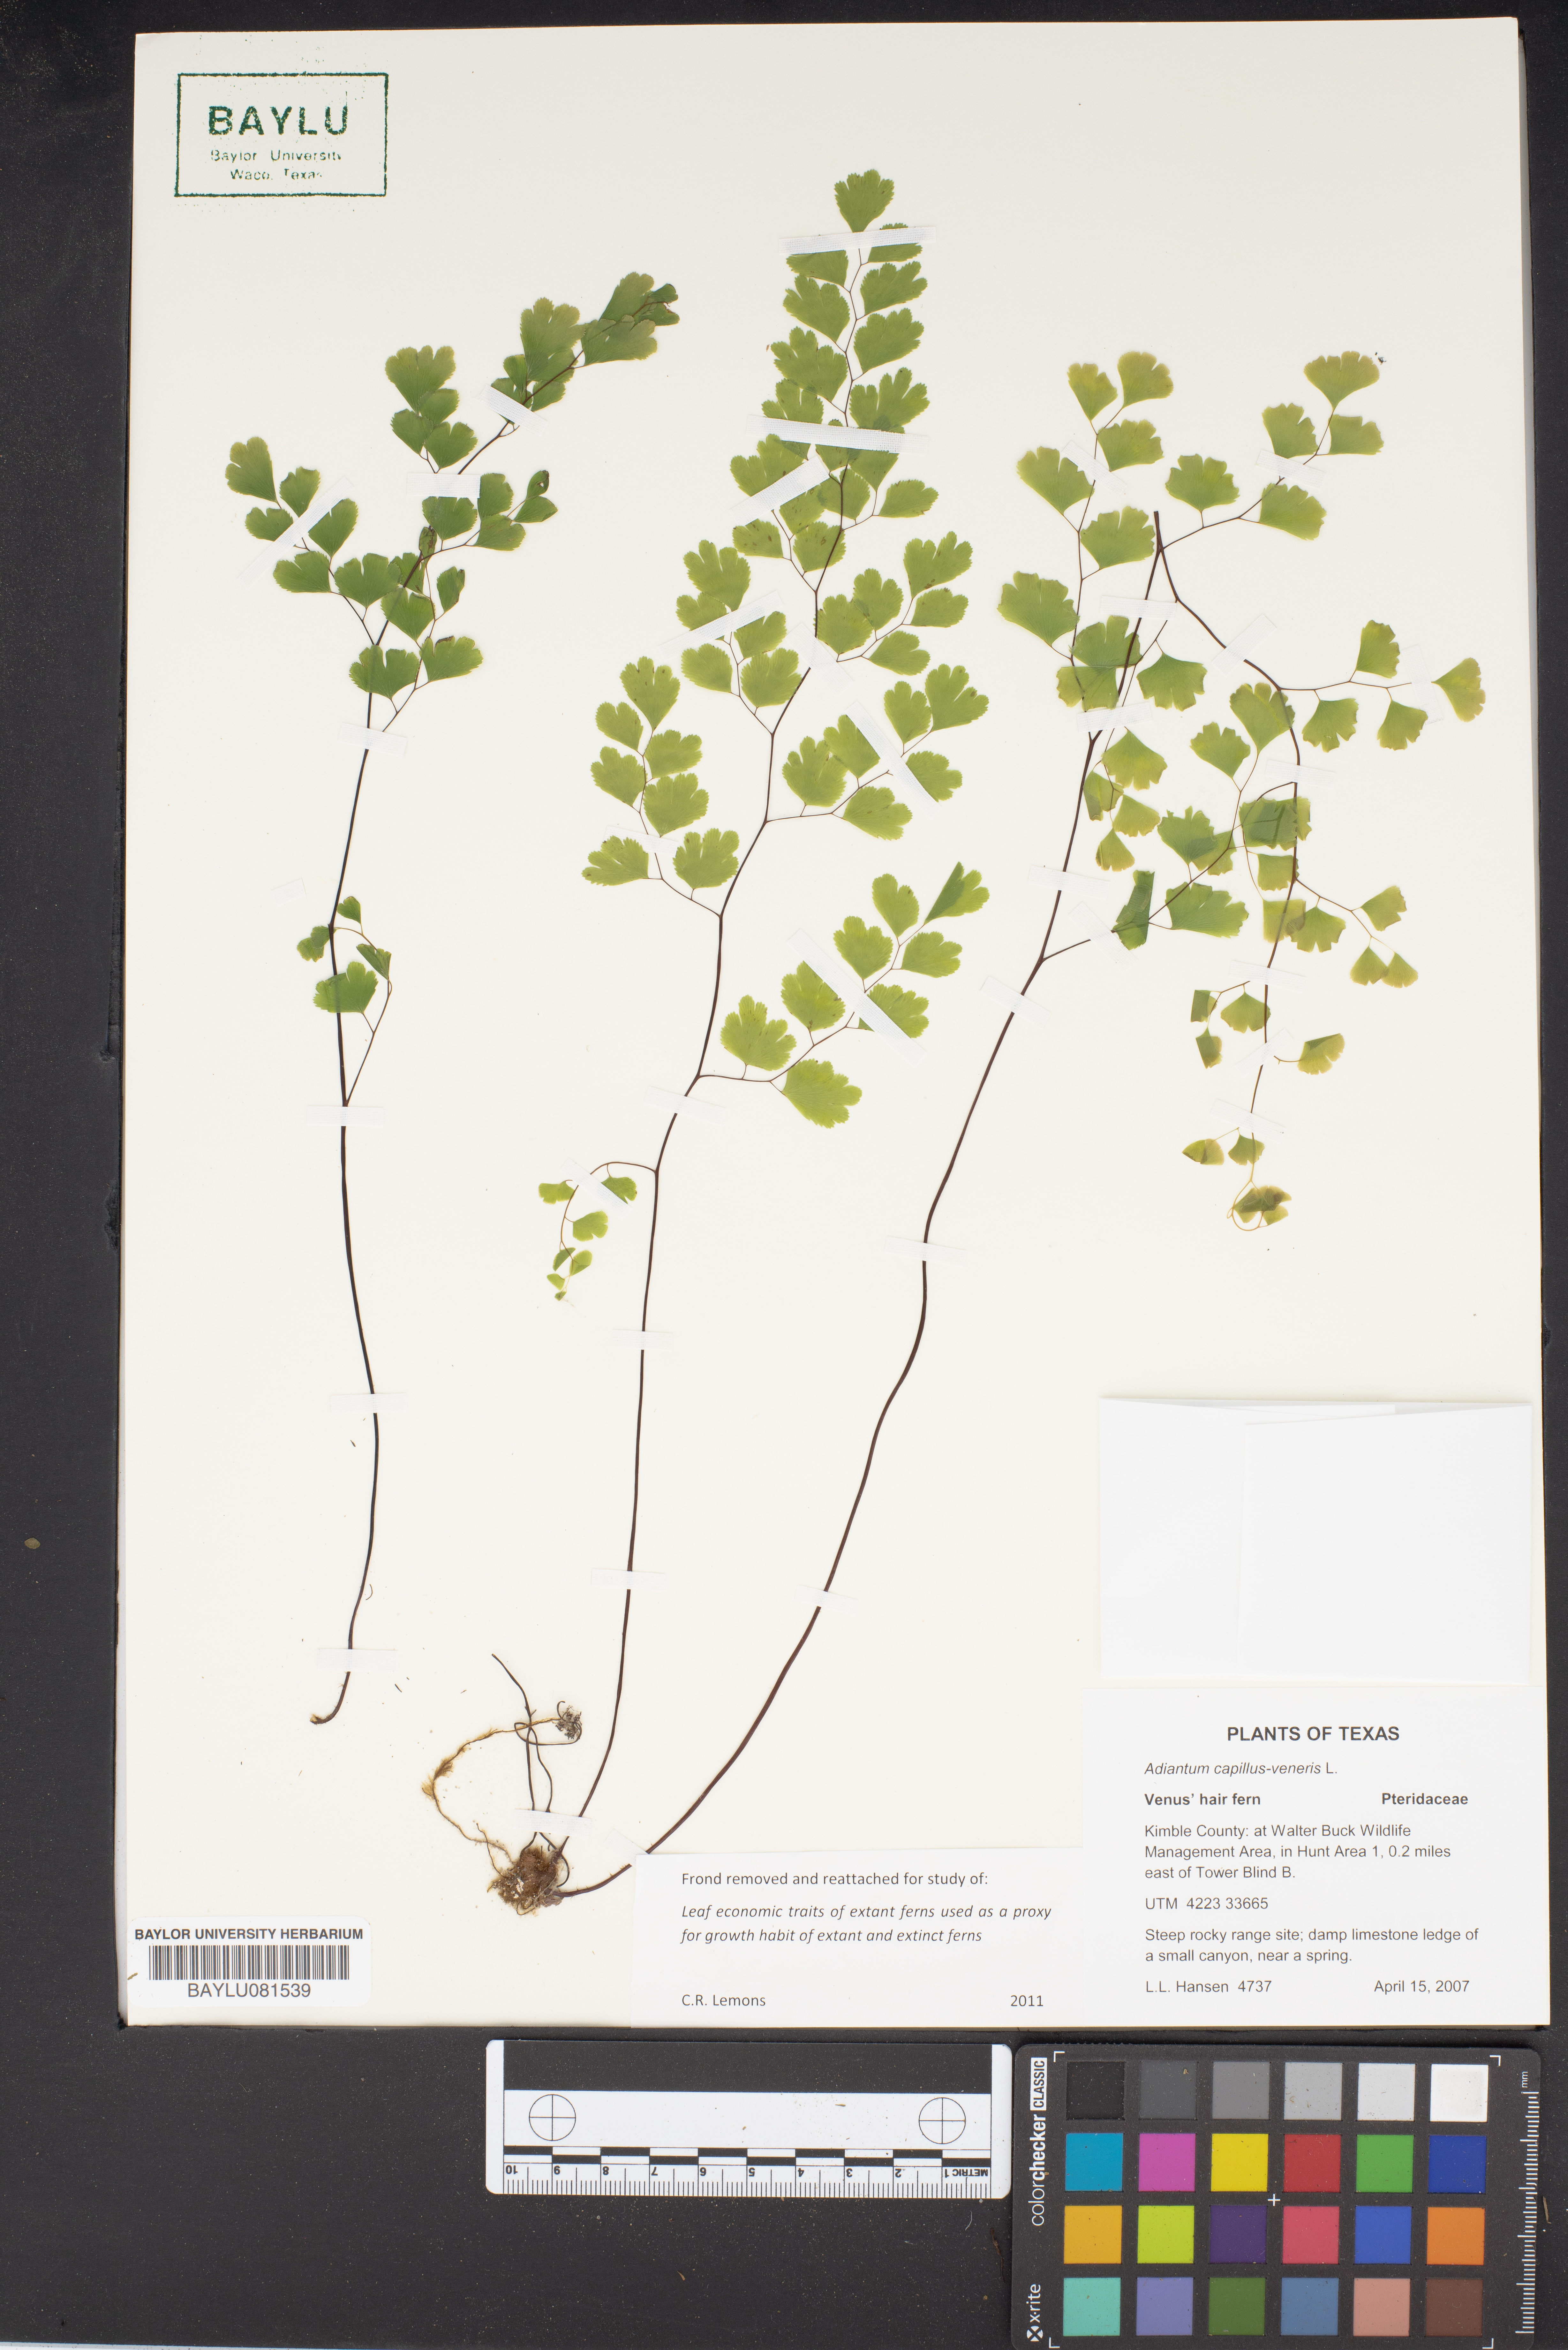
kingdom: Plantae
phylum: Tracheophyta
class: Polypodiopsida
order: Polypodiales
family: Pteridaceae
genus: Adiantum
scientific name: Adiantum capillus-veneris
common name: Maidenhair fern
